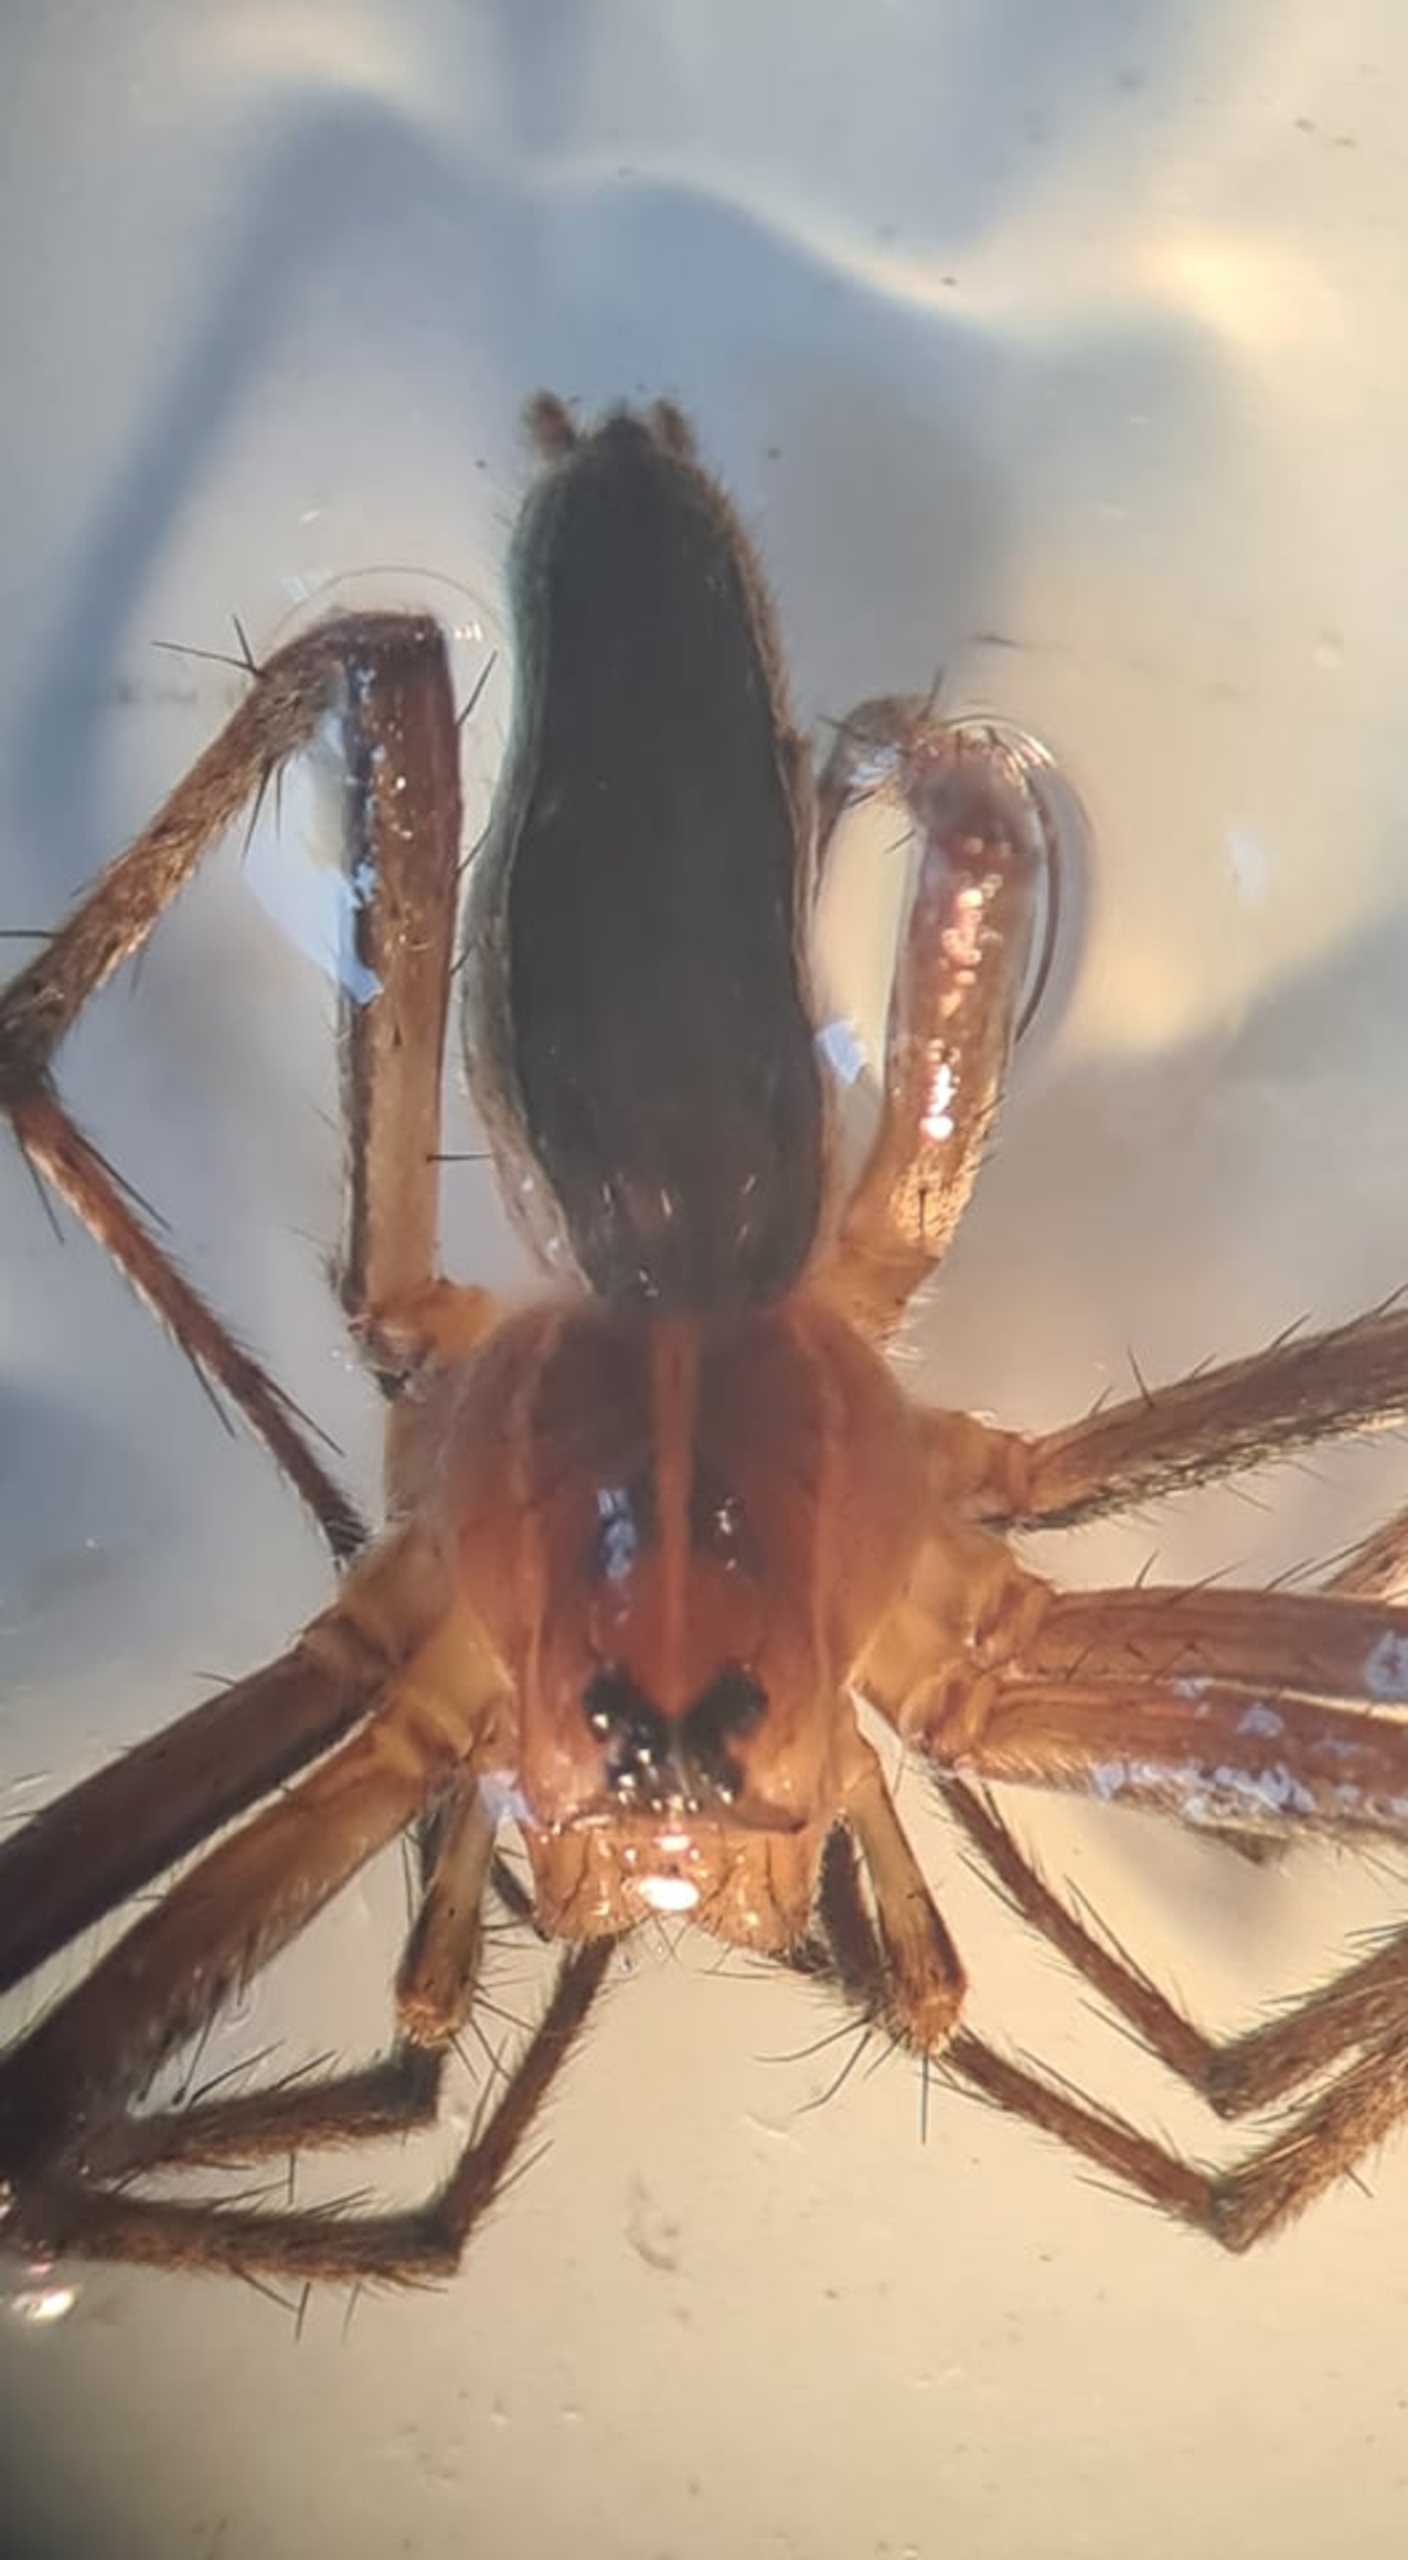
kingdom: Animalia
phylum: Arthropoda
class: Arachnida
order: Araneae
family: Pisauridae
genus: Pisaura
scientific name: Pisaura mirabilis
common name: Almindelig rovedderkop
